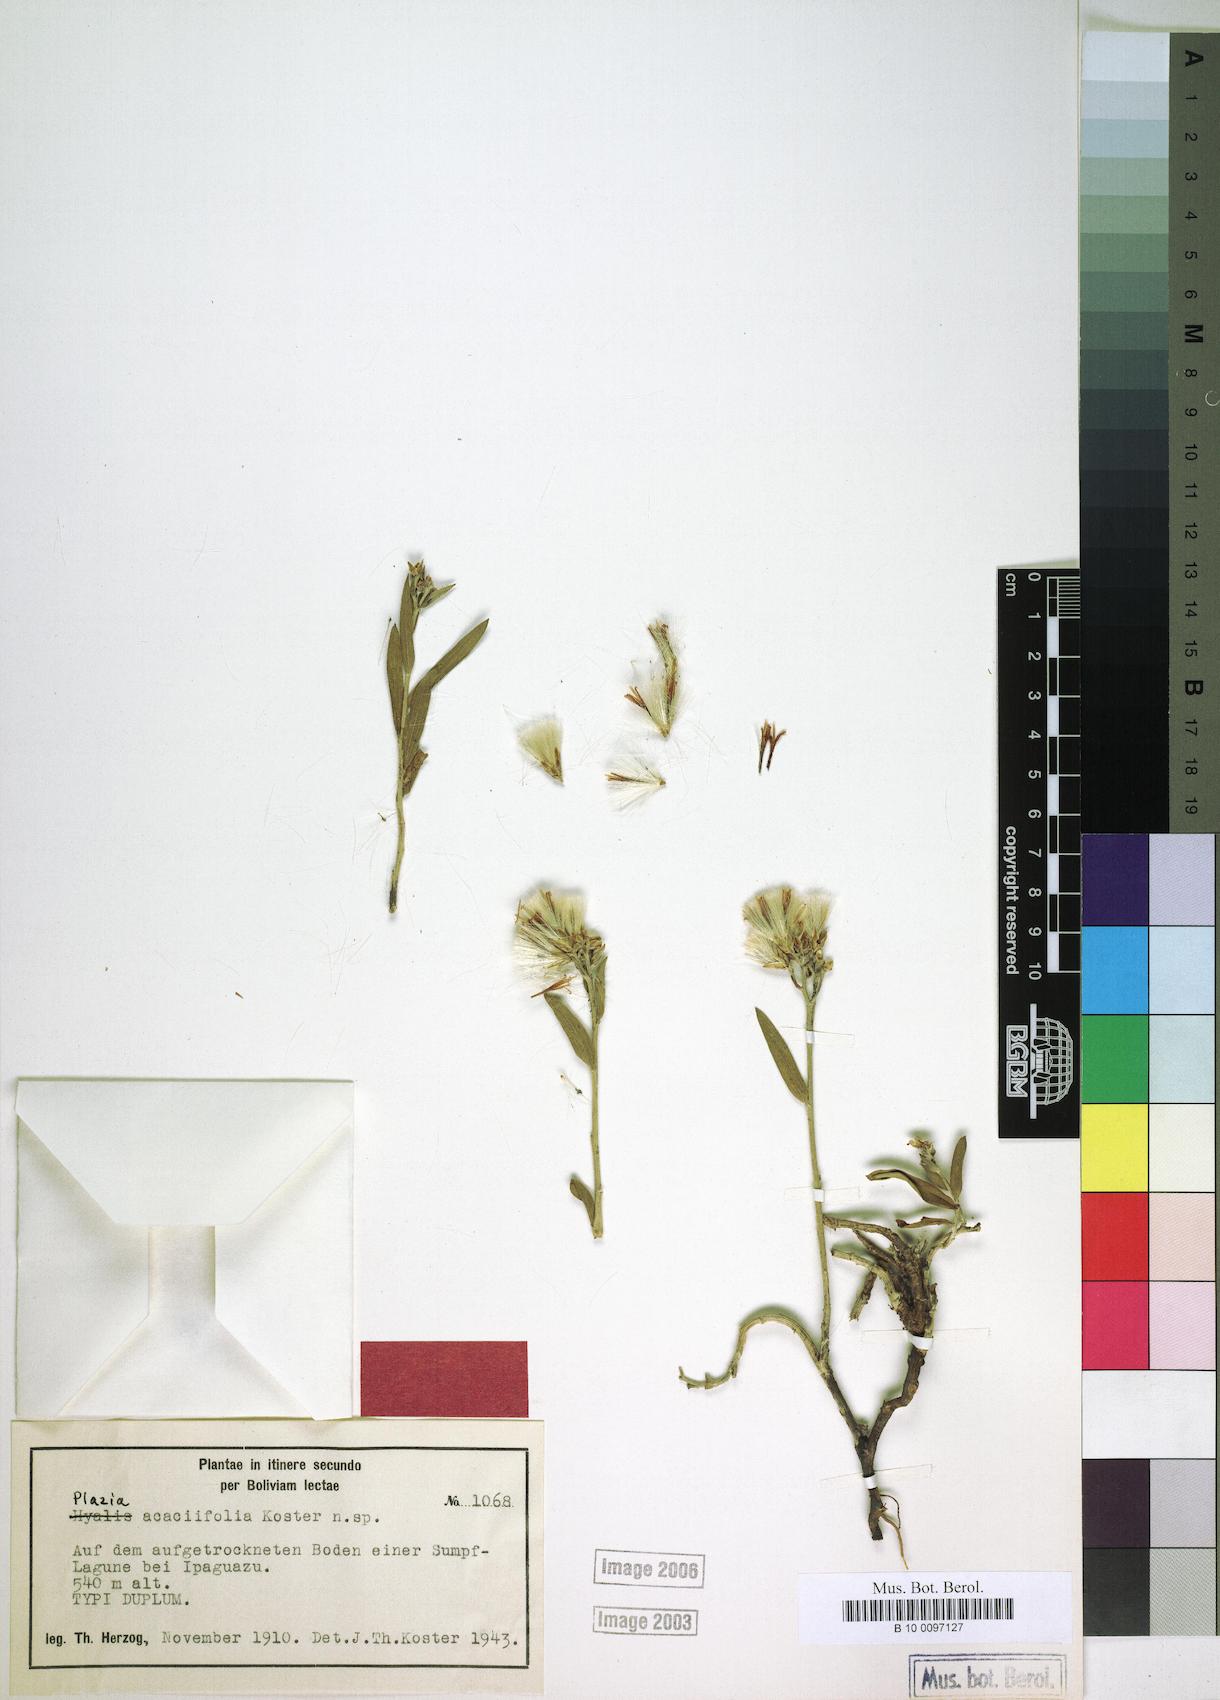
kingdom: Plantae
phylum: Tracheophyta
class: Magnoliopsida
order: Asterales
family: Asteraceae
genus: Hyalis
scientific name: Hyalis lancifolia
